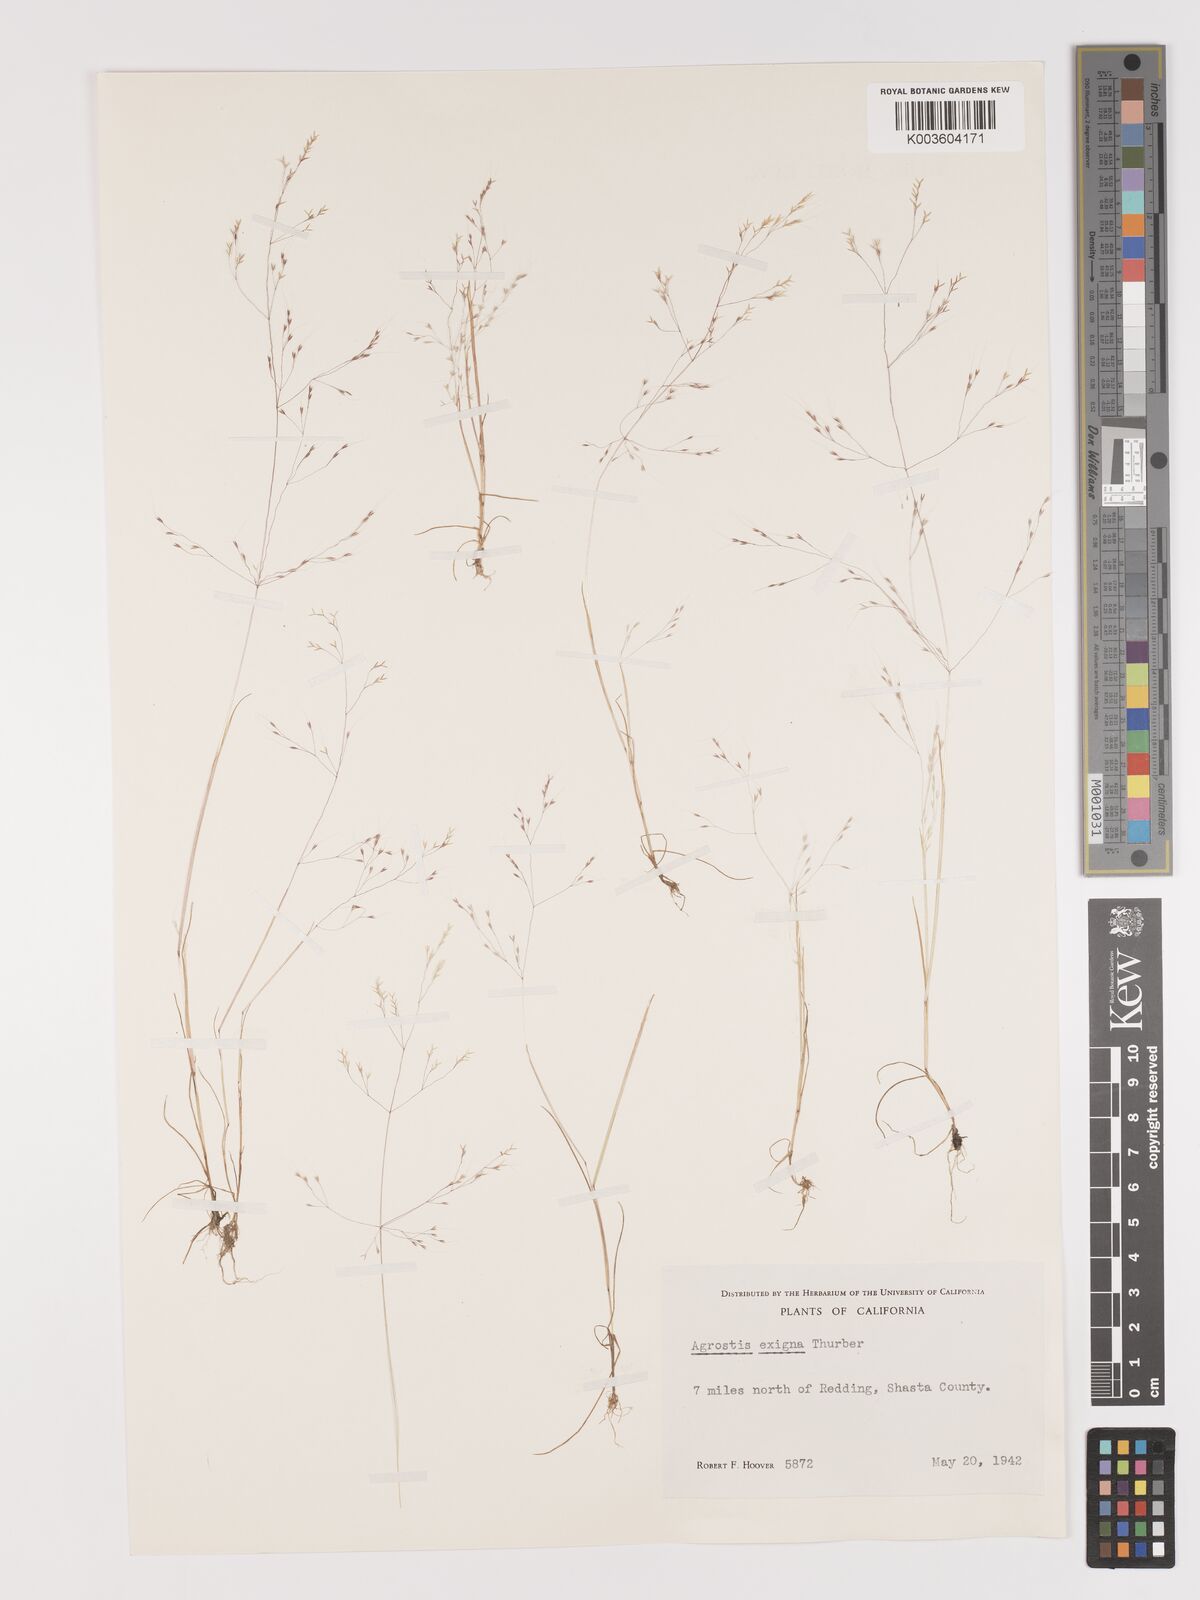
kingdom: Plantae
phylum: Tracheophyta
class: Liliopsida
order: Poales
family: Poaceae
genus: Agrostis
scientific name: Agrostis elliottiana
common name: Elliott's bent
